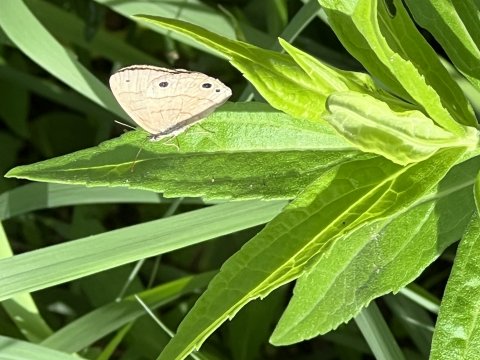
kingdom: Animalia
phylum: Arthropoda
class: Insecta
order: Lepidoptera
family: Nymphalidae
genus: Hermeuptychia
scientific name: Hermeuptychia hermes
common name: Carolina Satyr
